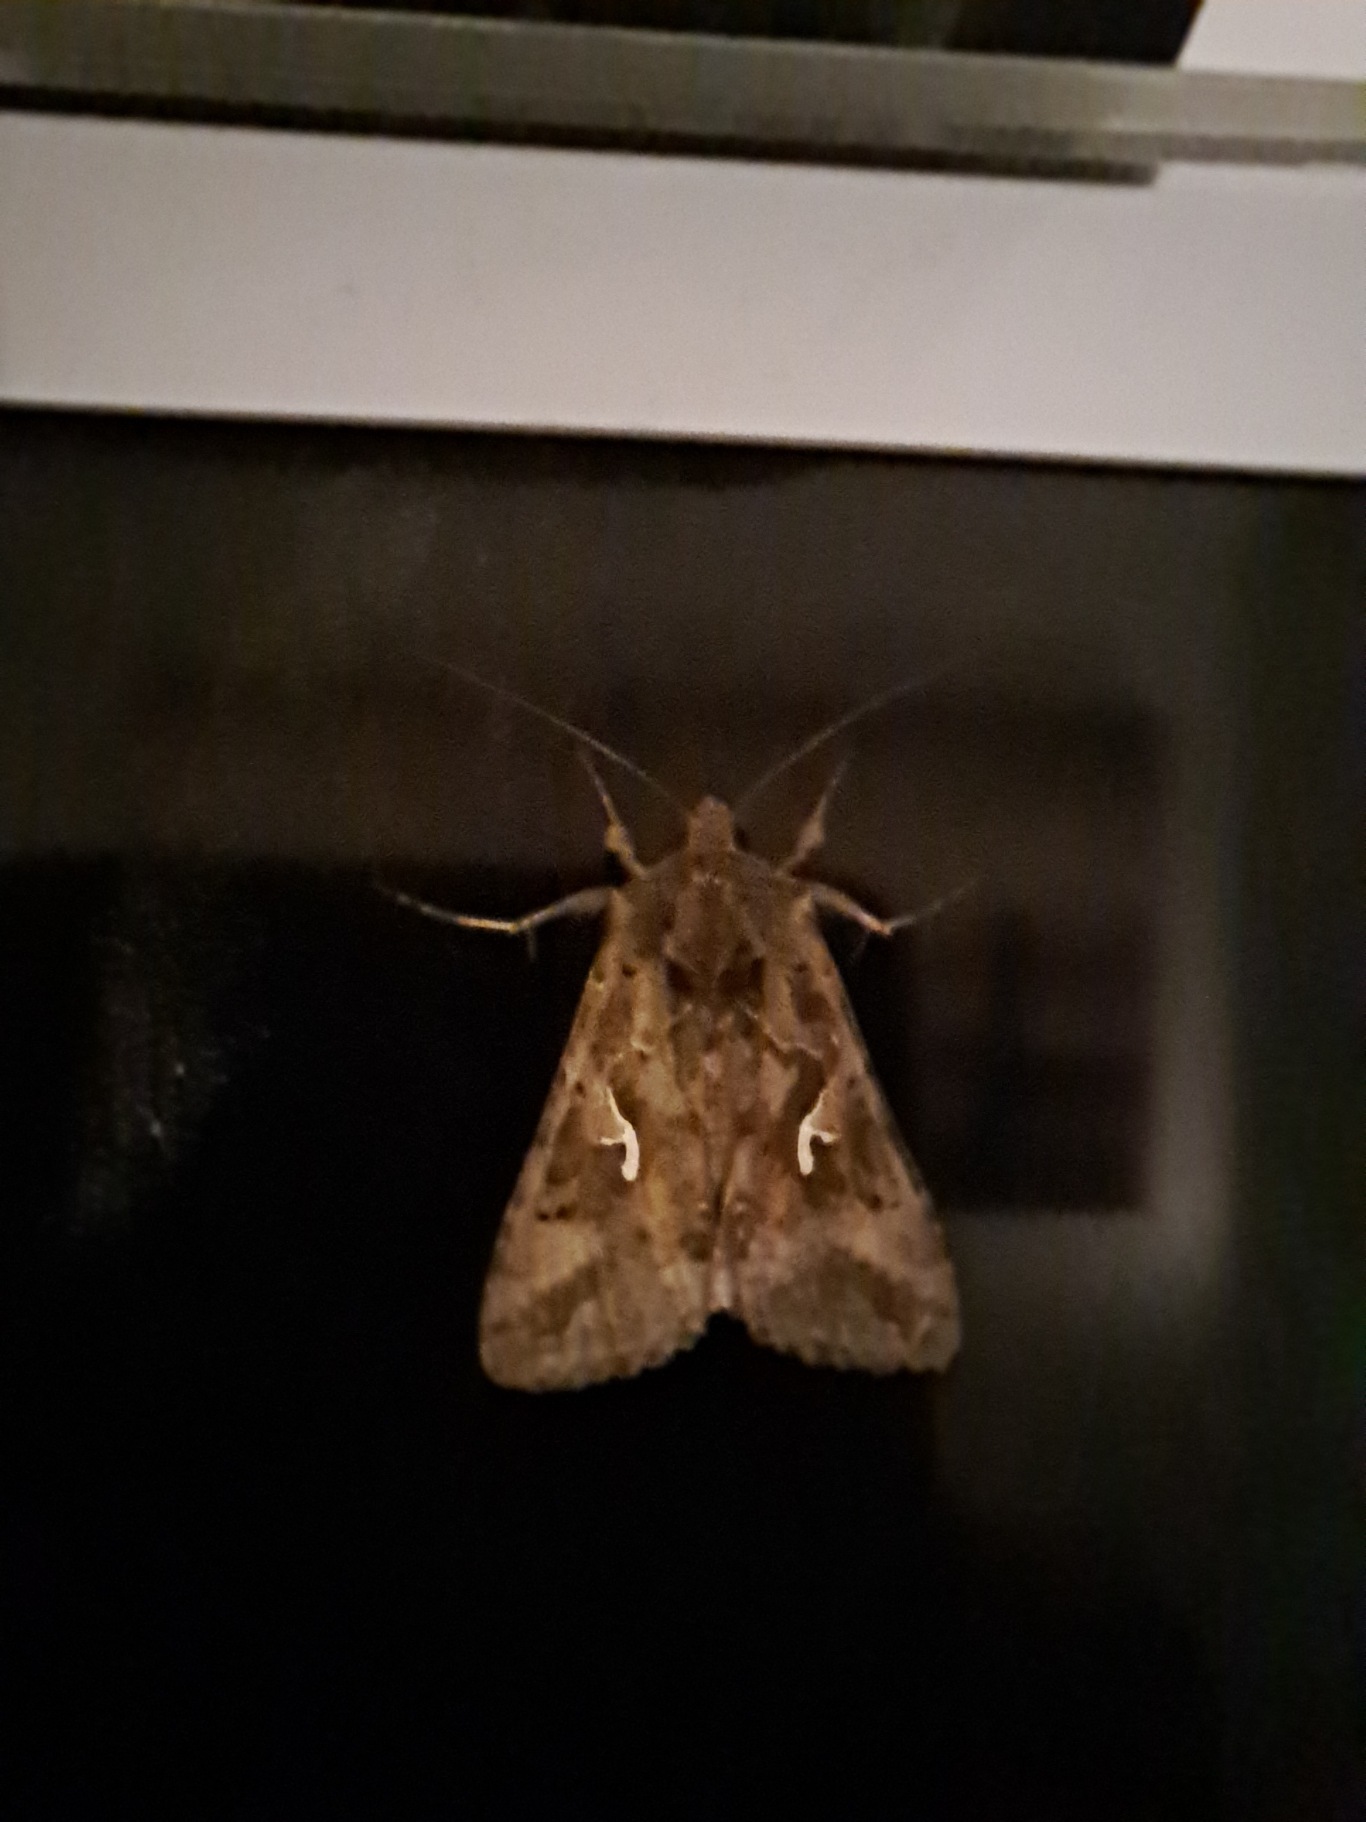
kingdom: Animalia
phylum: Arthropoda
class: Insecta
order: Lepidoptera
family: Noctuidae
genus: Autographa
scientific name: Autographa gamma
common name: Gammaugle
